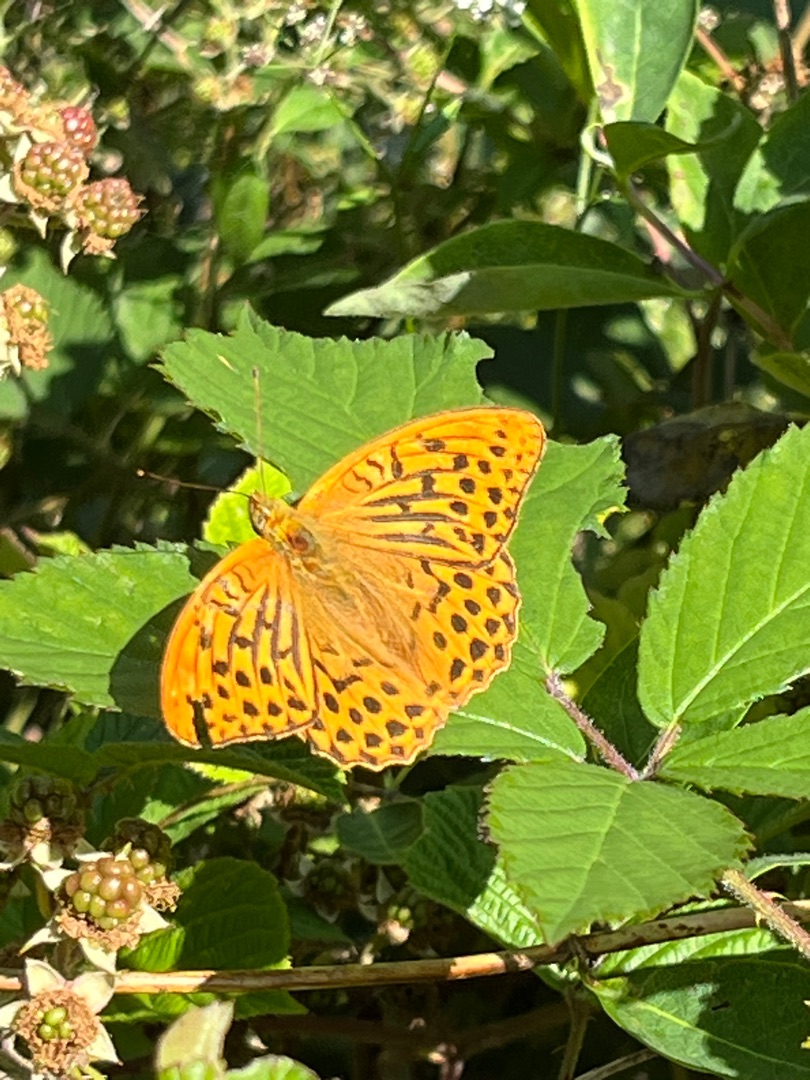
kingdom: Animalia
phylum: Arthropoda
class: Insecta
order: Lepidoptera
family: Nymphalidae
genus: Argynnis
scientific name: Argynnis paphia
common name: Kejserkåbe
